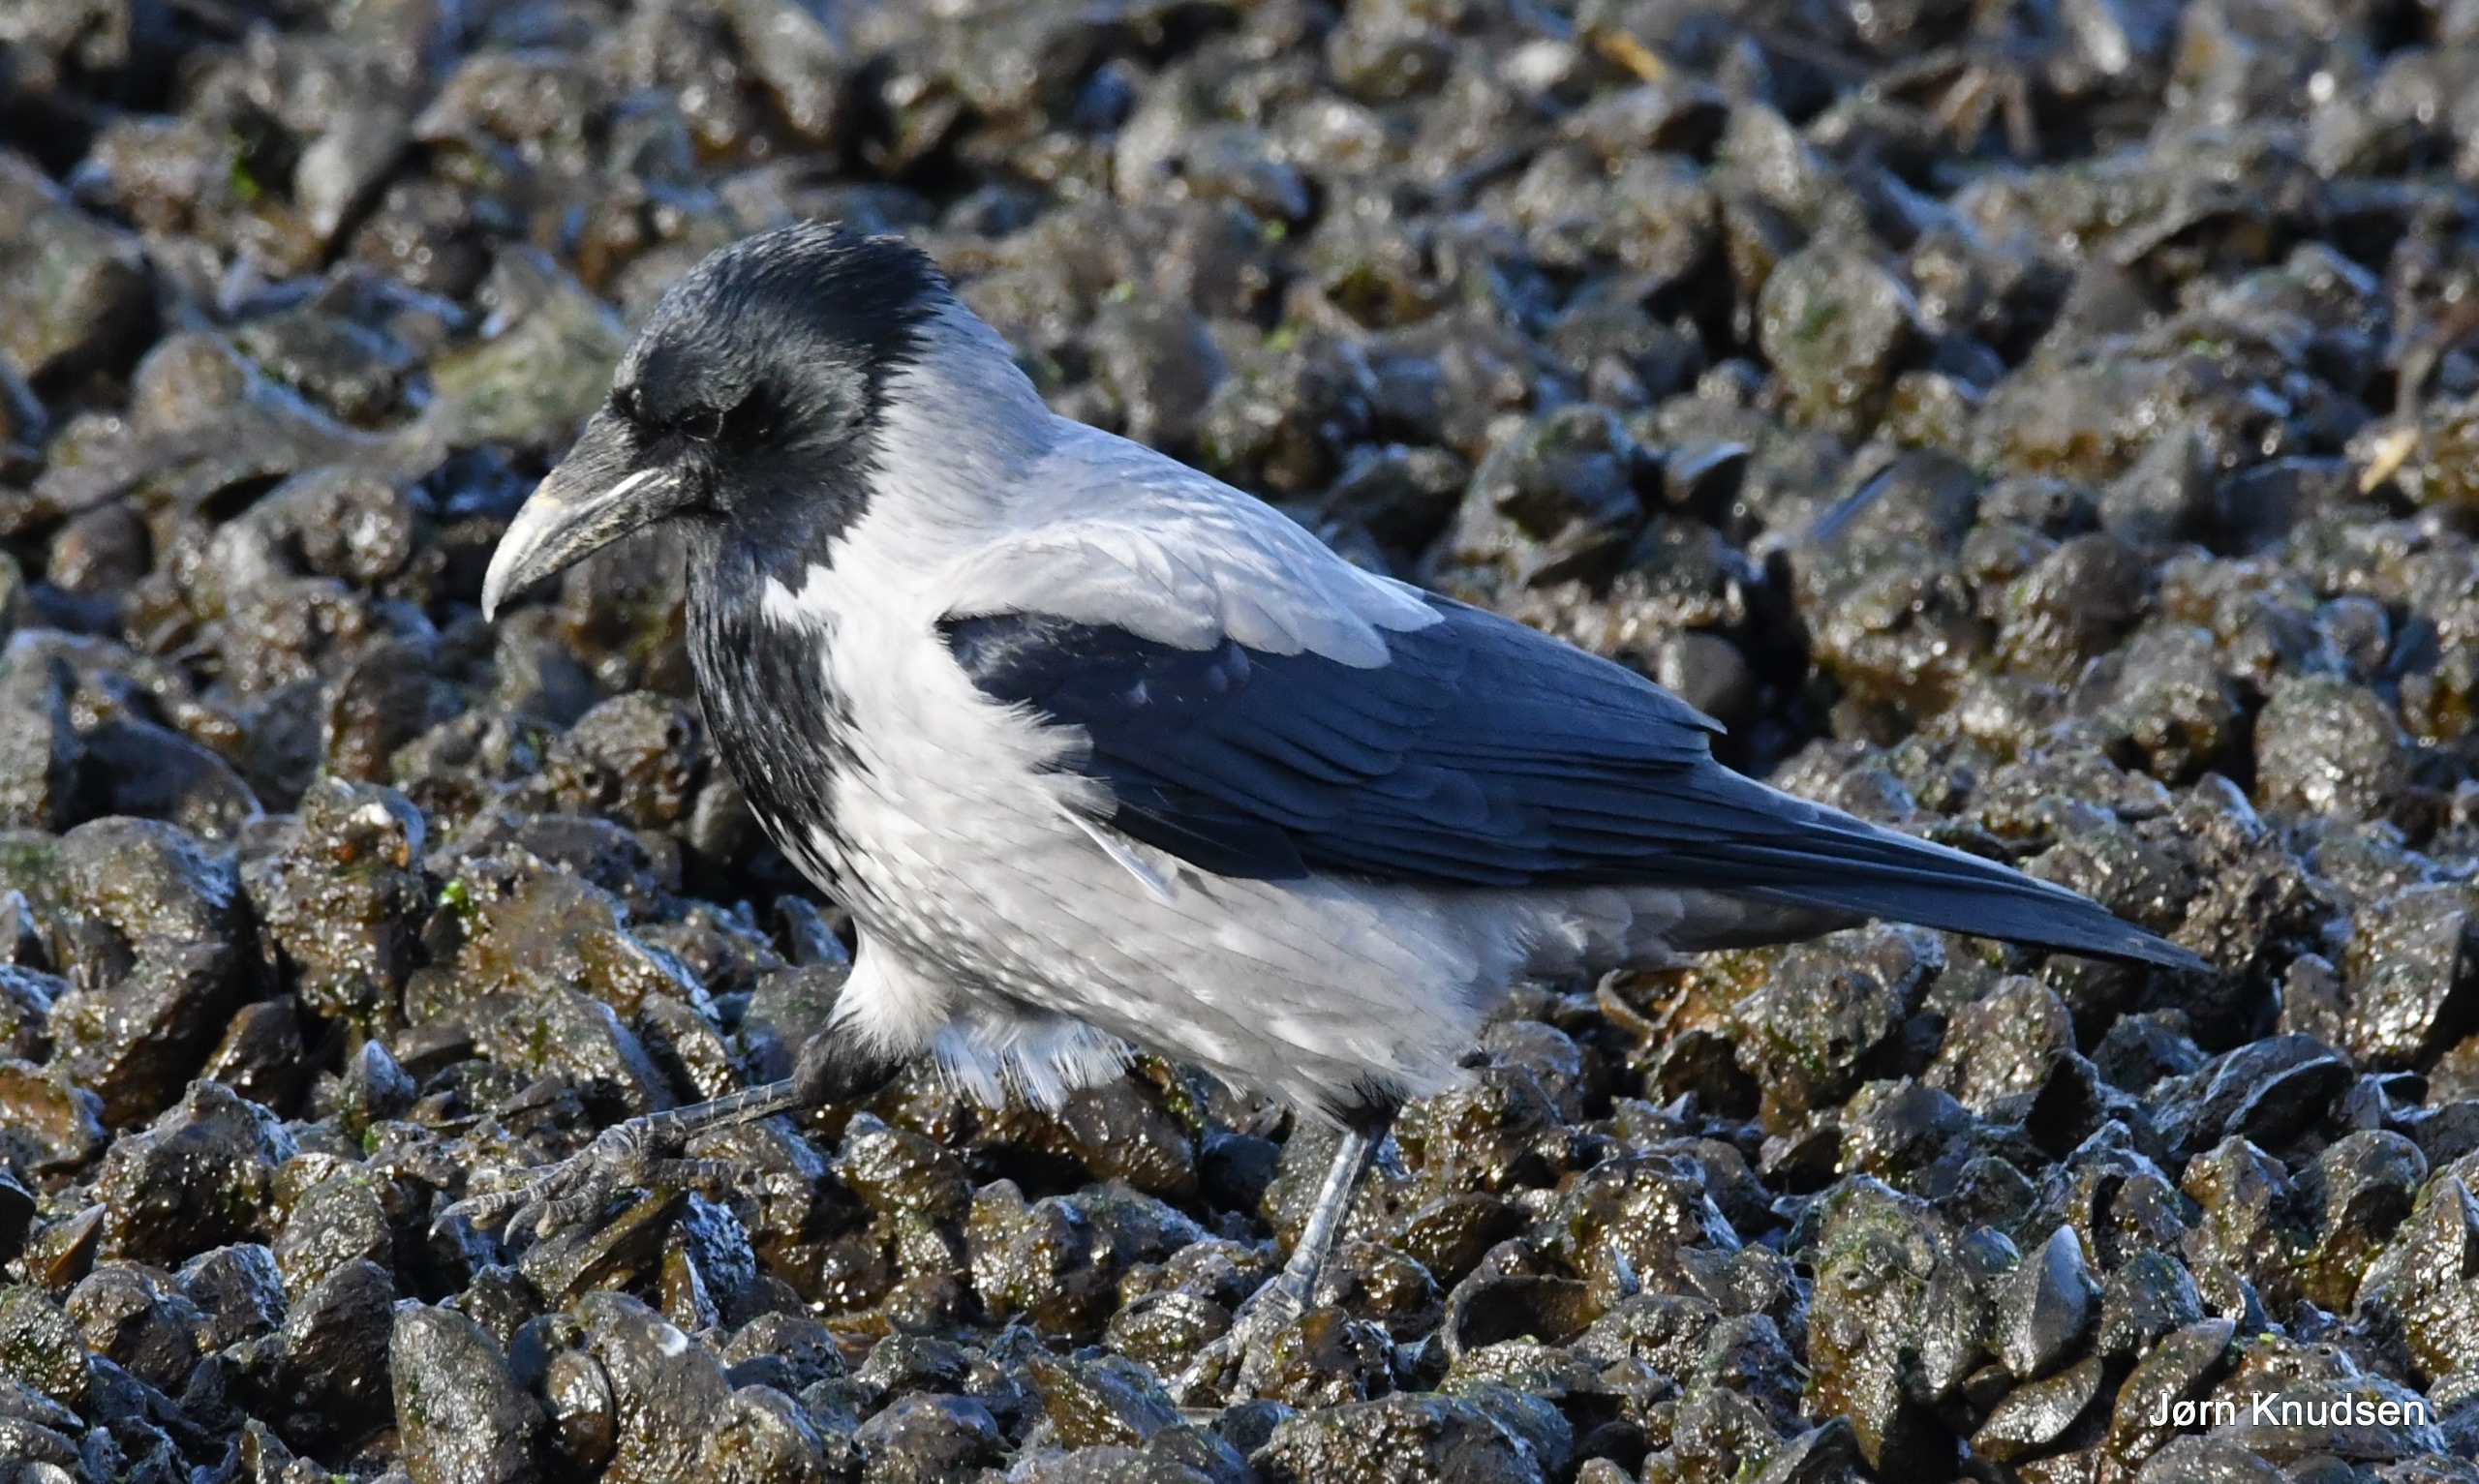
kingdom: Animalia
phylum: Chordata
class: Aves
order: Passeriformes
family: Corvidae
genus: Corvus
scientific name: Corvus cornix
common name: Gråkrage
